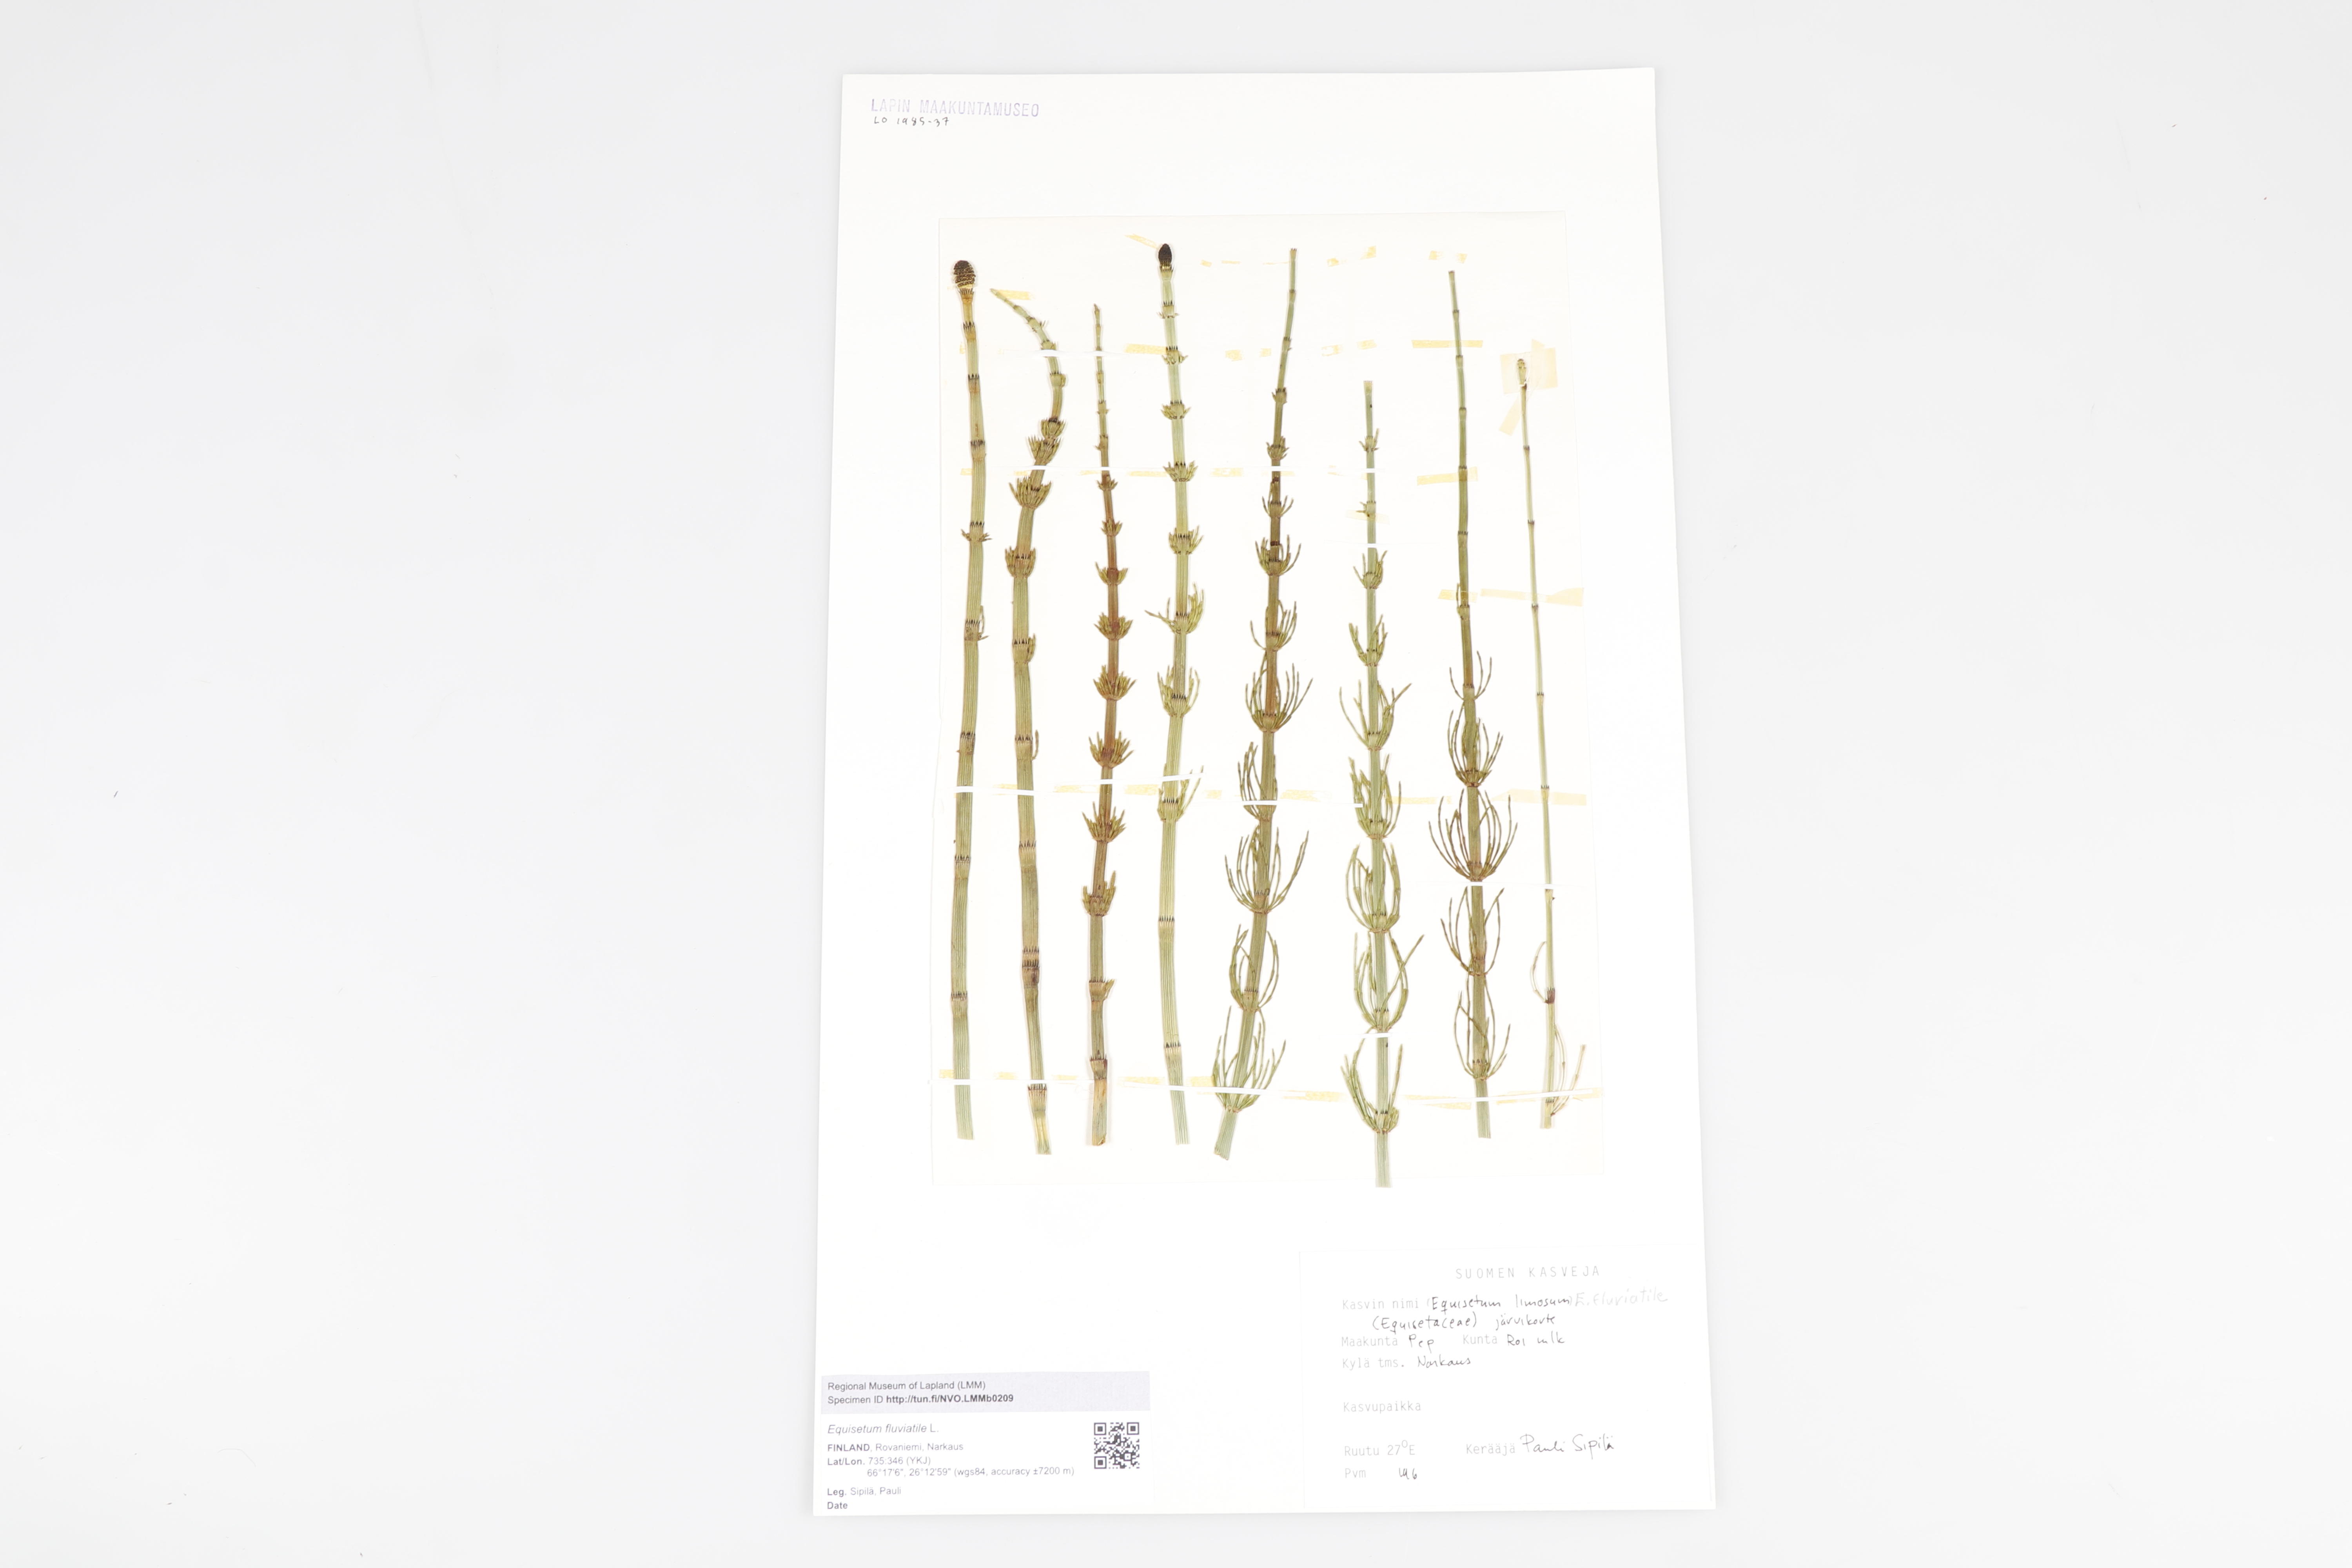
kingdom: Plantae
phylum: Tracheophyta
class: Polypodiopsida
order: Equisetales
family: Equisetaceae
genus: Equisetum
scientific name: Equisetum fluviatile
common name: Water horsetail
